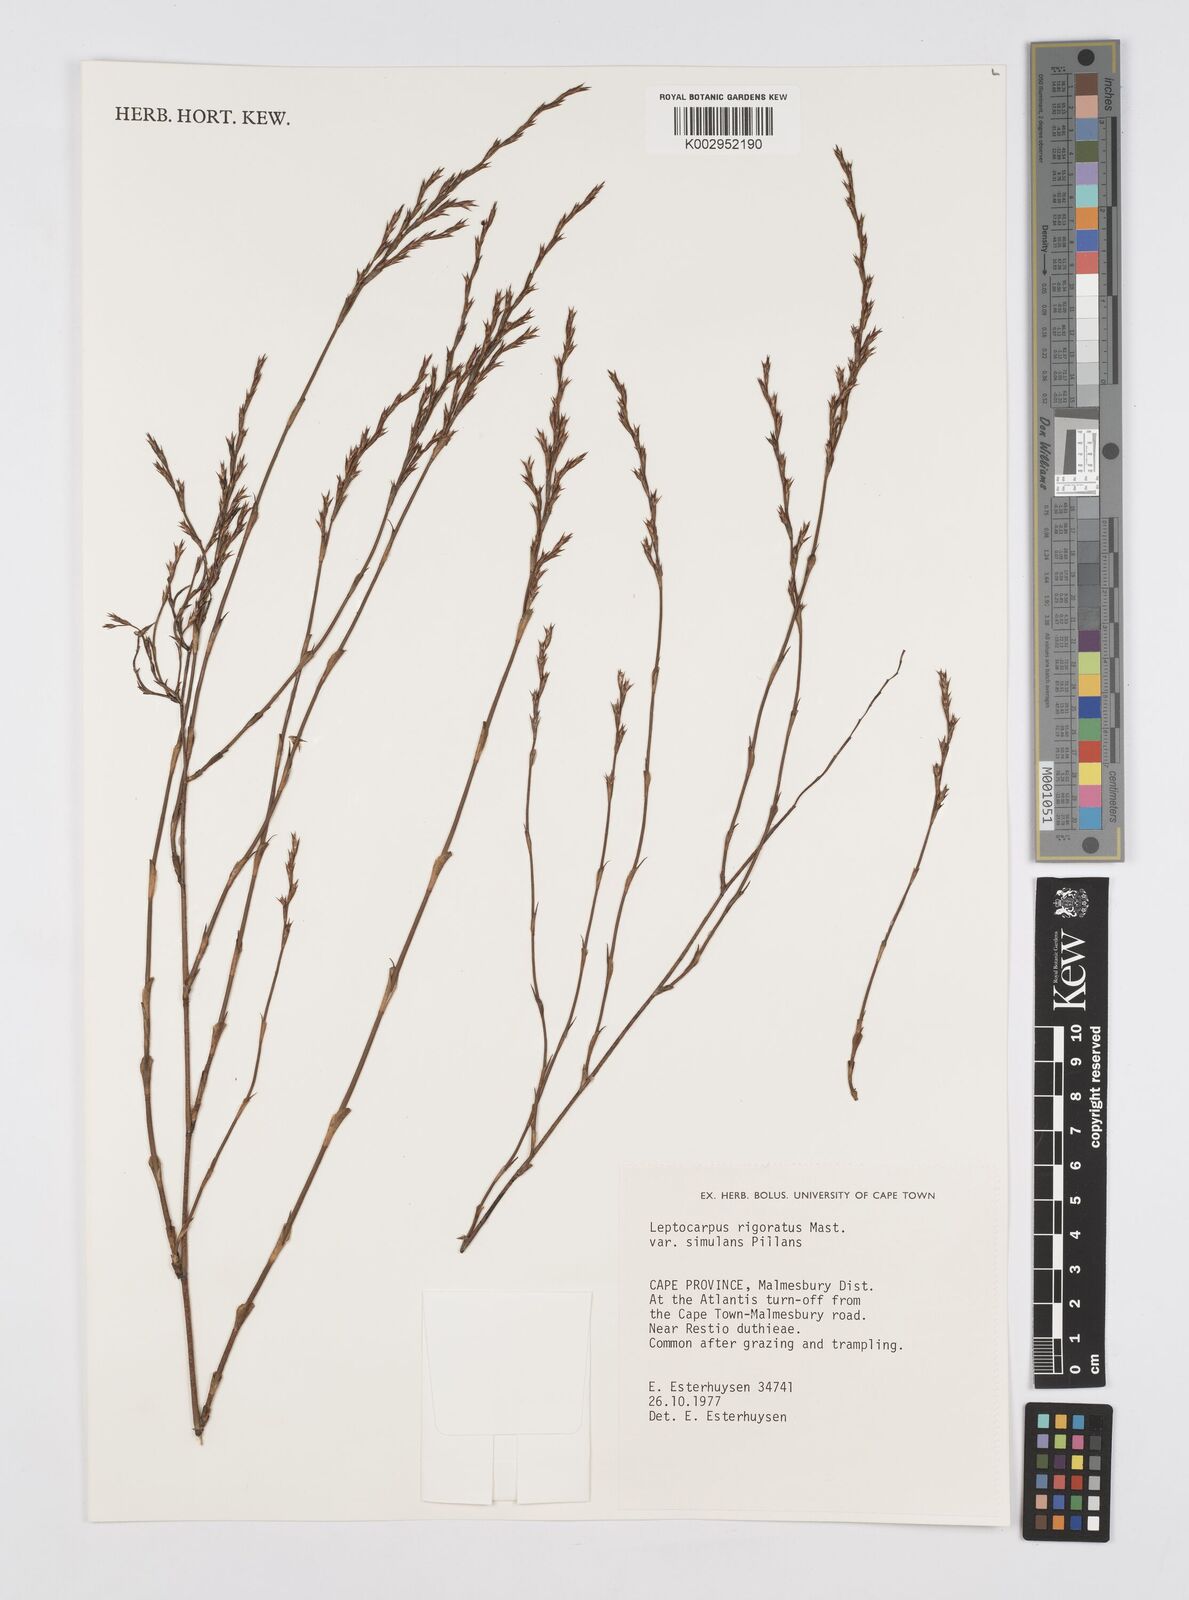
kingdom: Plantae
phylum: Tracheophyta
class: Liliopsida
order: Poales
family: Restionaceae
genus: Restio
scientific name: Restio rigoratus
